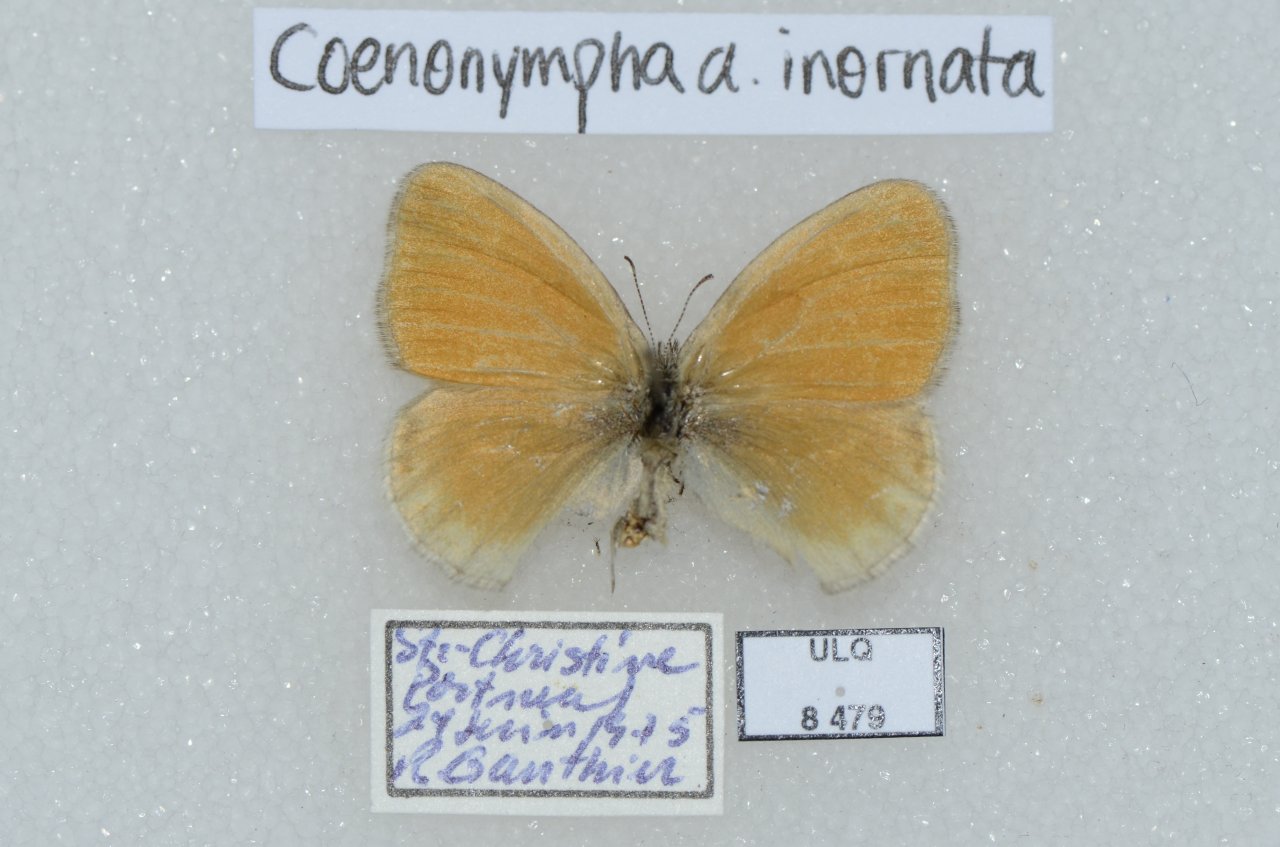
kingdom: Animalia
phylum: Arthropoda
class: Insecta
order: Lepidoptera
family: Nymphalidae
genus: Coenonympha
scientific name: Coenonympha tullia
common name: Large Heath
